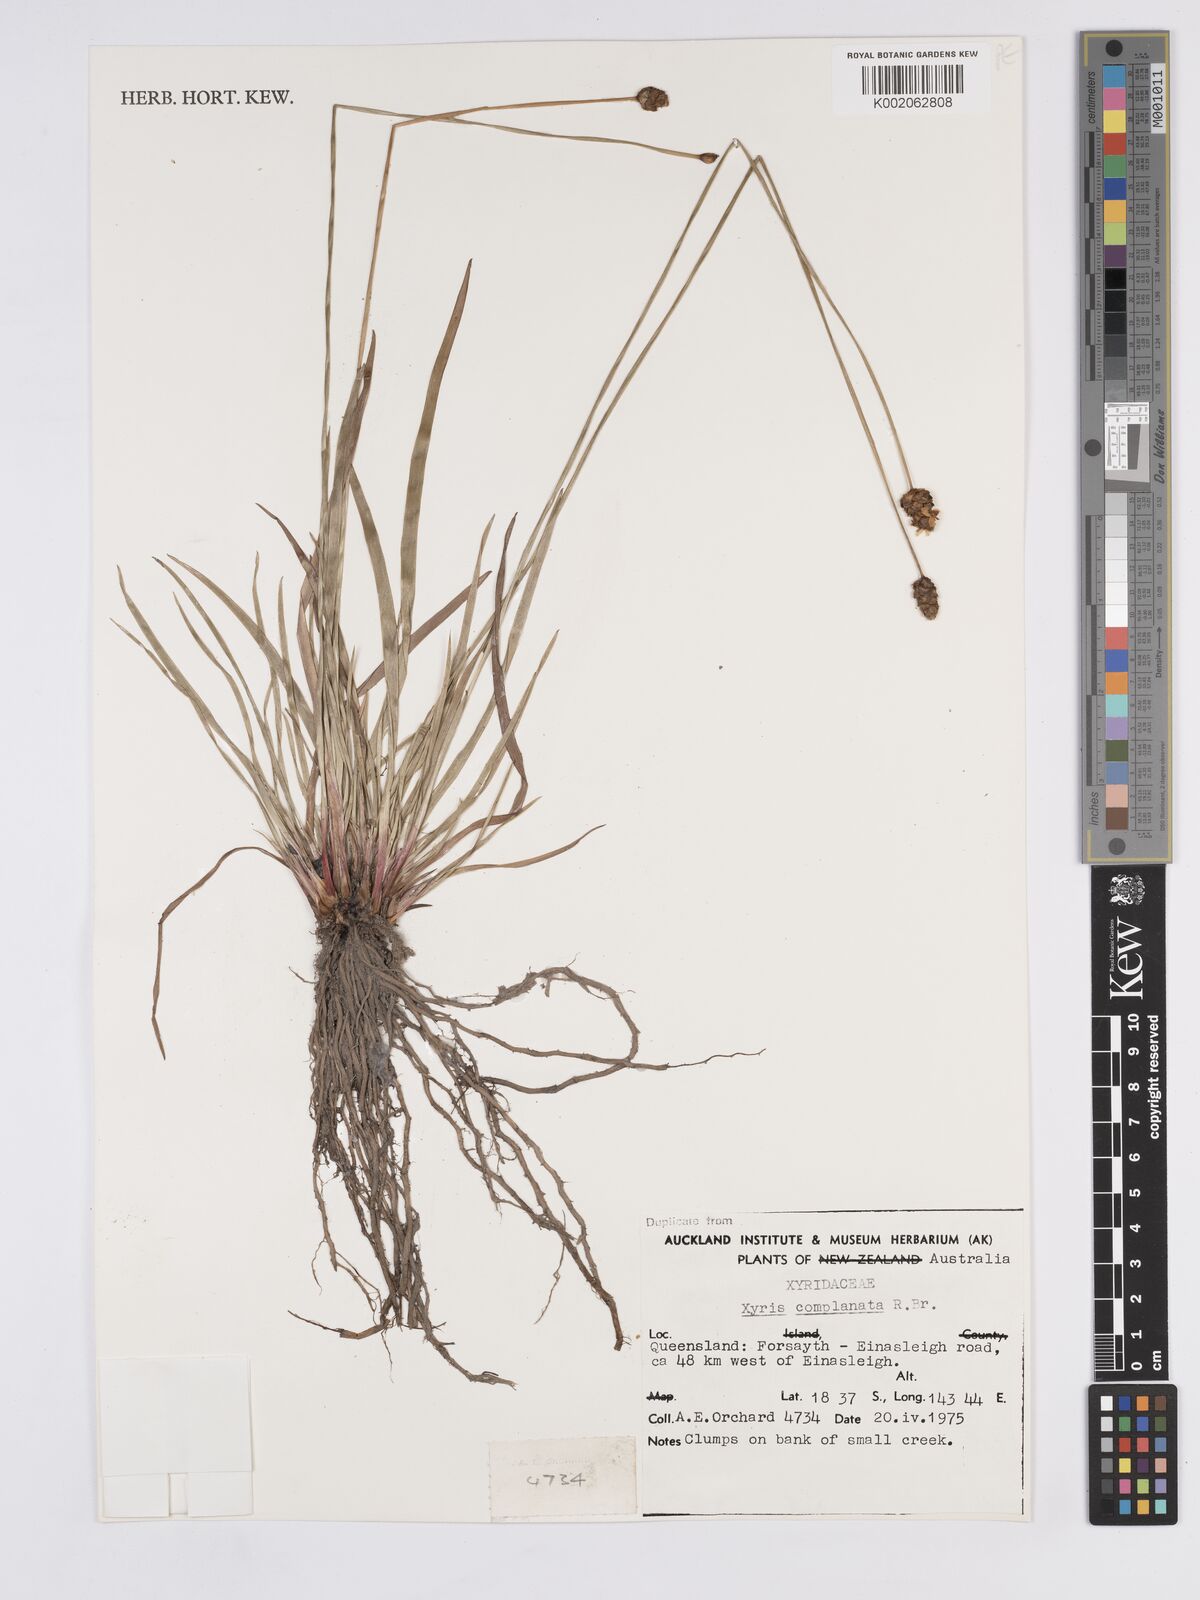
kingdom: Plantae
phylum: Tracheophyta
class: Liliopsida
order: Poales
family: Xyridaceae
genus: Xyris
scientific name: Xyris complanata
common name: Hawai'i yelloweyed grass
